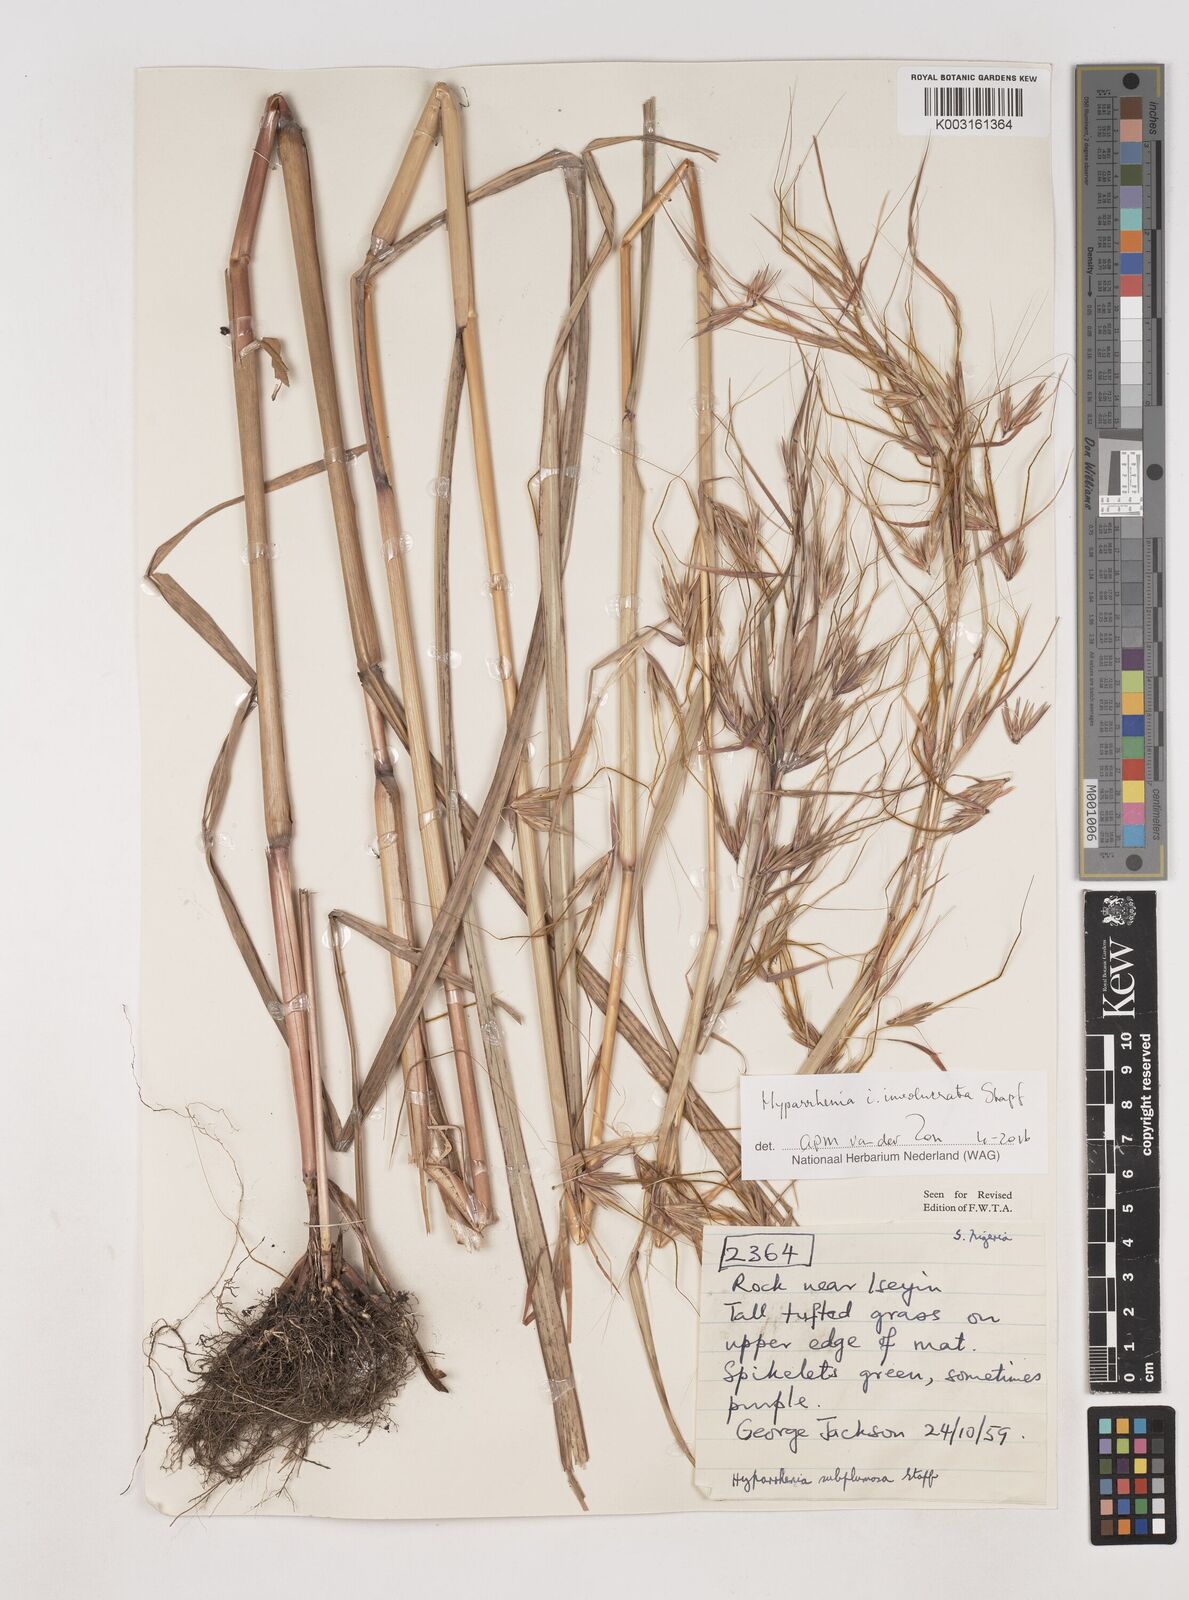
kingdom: Plantae
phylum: Tracheophyta
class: Liliopsida
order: Poales
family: Poaceae
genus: Hyparrhenia
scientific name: Hyparrhenia subplumosa
